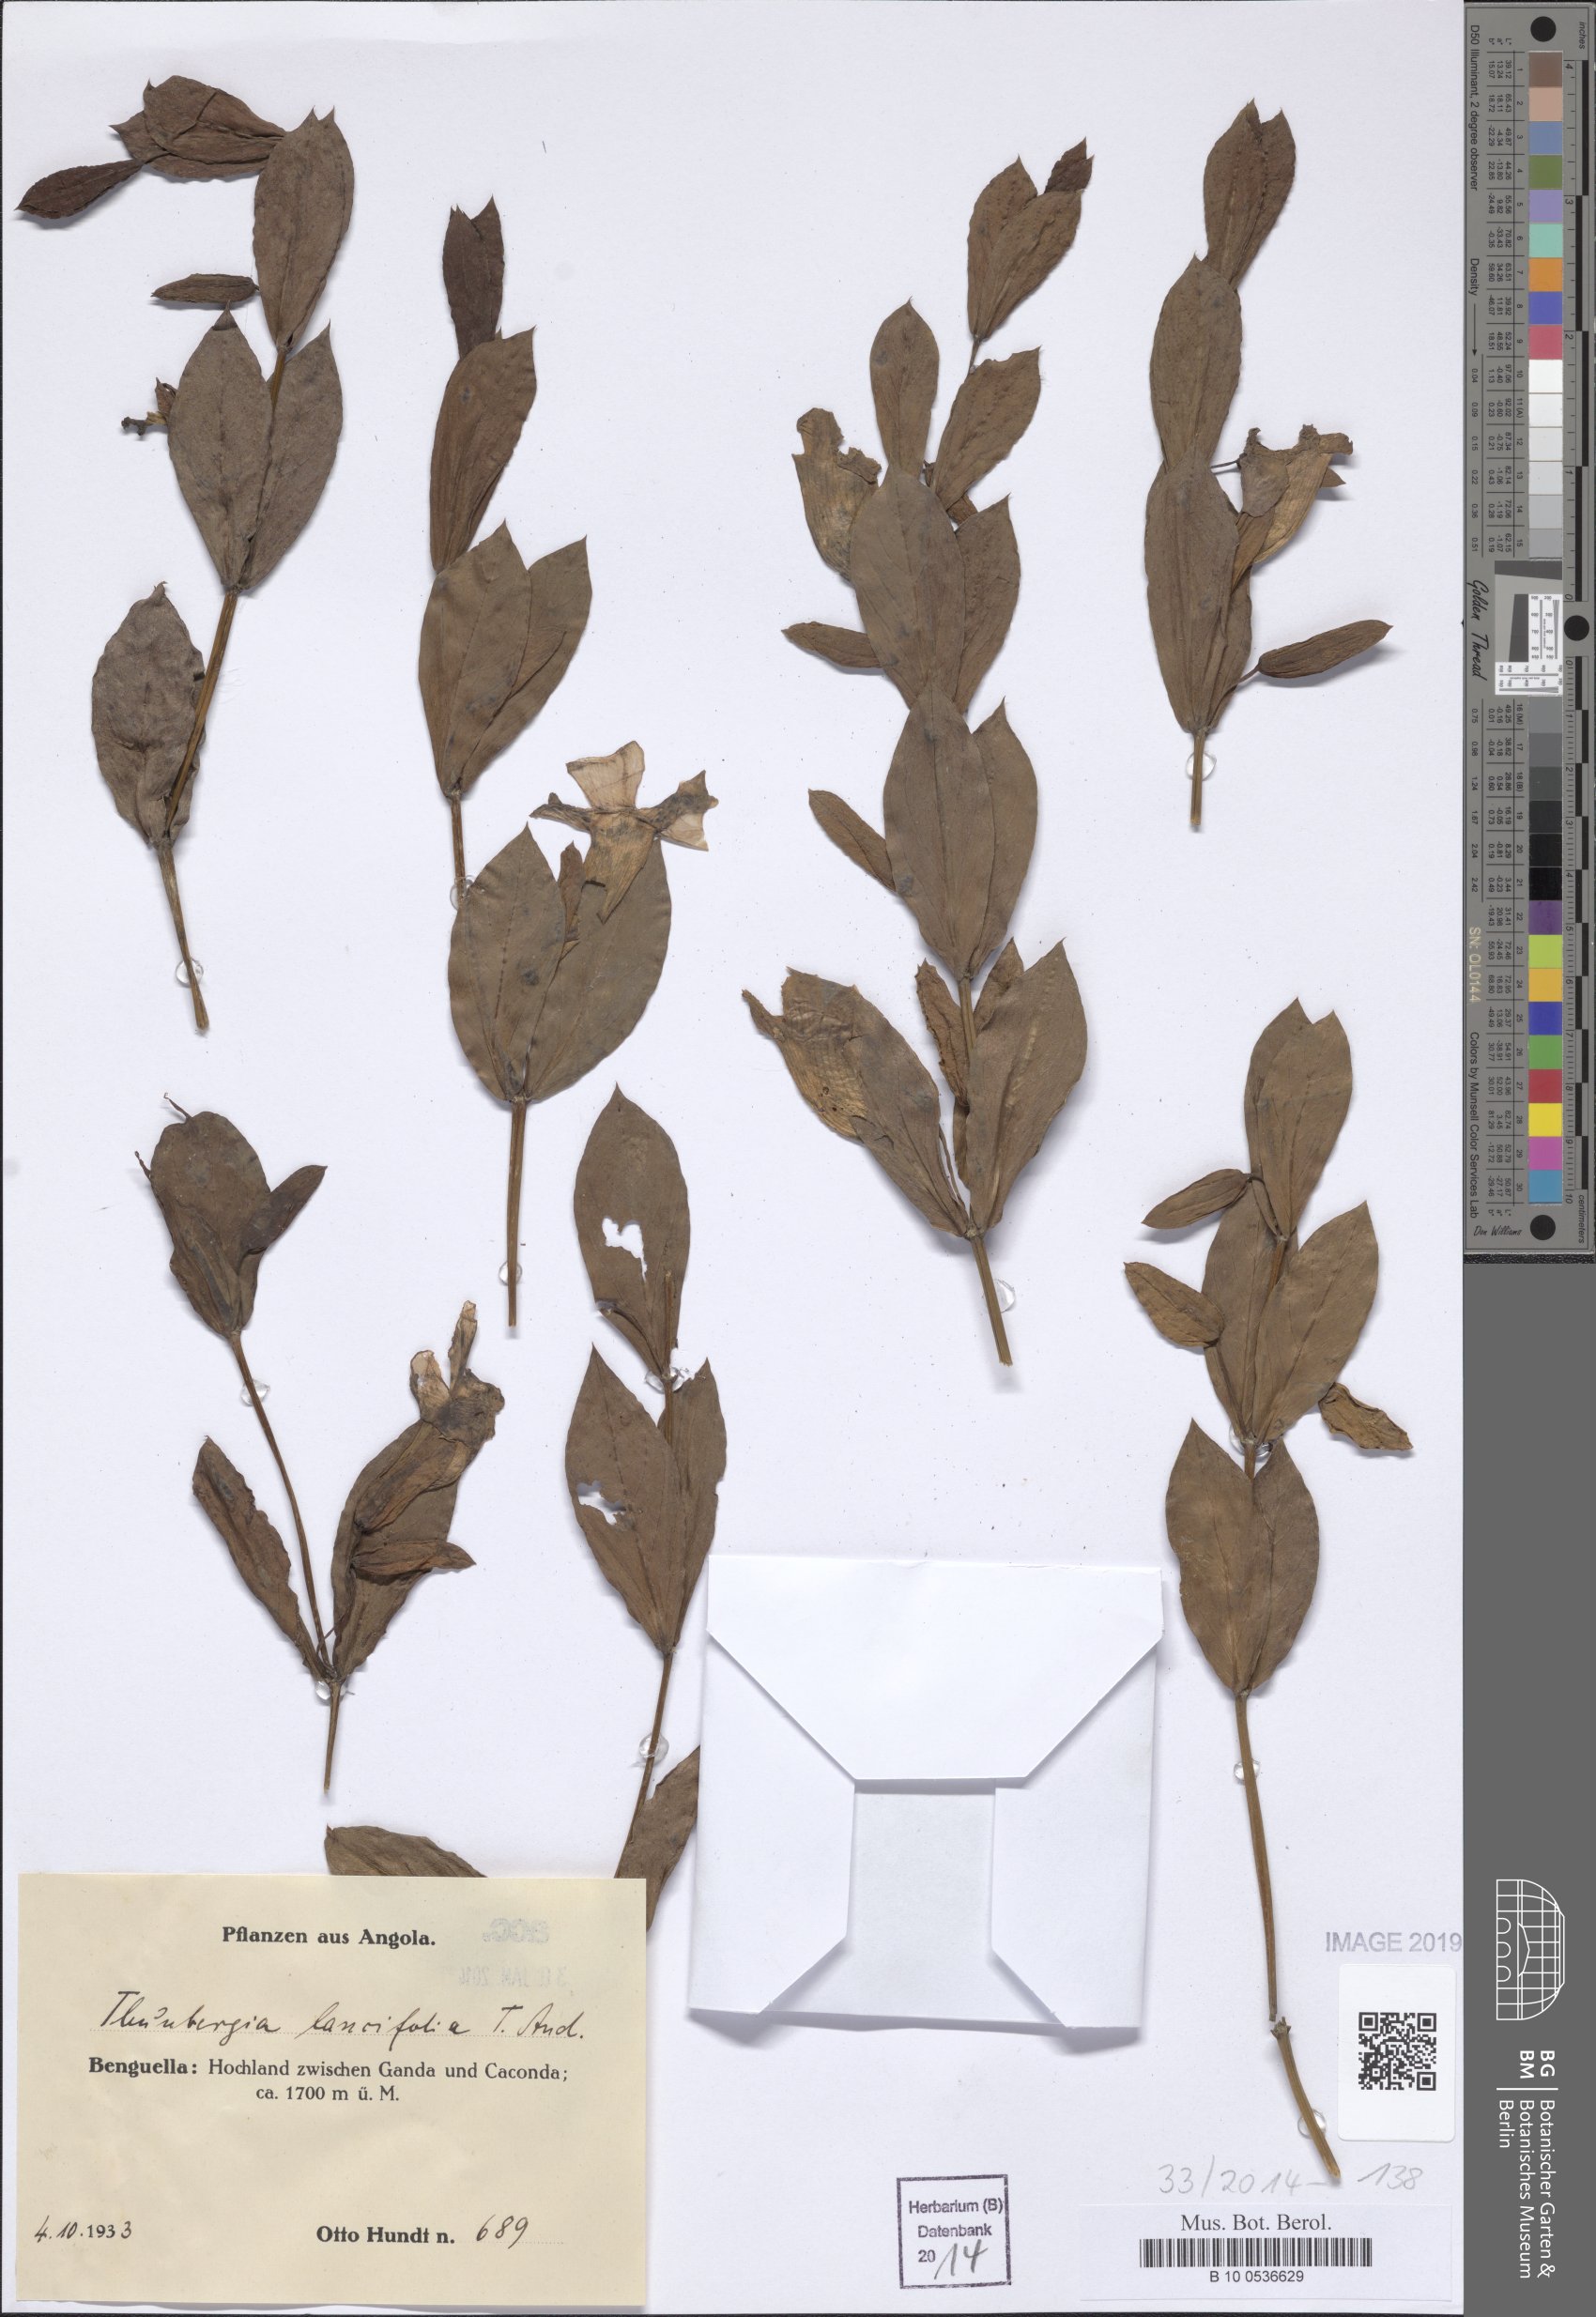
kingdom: Plantae
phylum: Tracheophyta
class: Magnoliopsida
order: Lamiales
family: Acanthaceae
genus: Thunbergia
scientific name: Thunbergia laurifolia
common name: Laurel-leaved thunbergia
